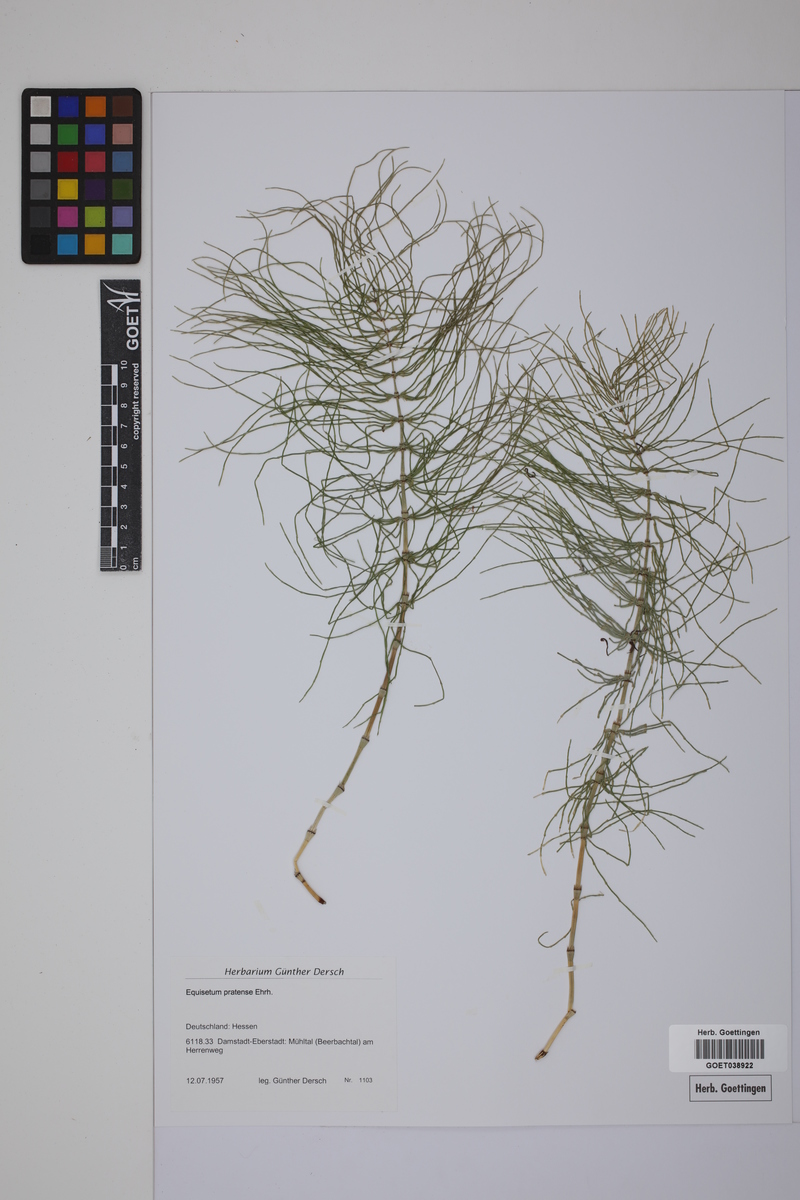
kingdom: Plantae
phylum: Tracheophyta
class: Polypodiopsida
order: Equisetales
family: Equisetaceae
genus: Equisetum
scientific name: Equisetum pratense
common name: Meadow horsetail
